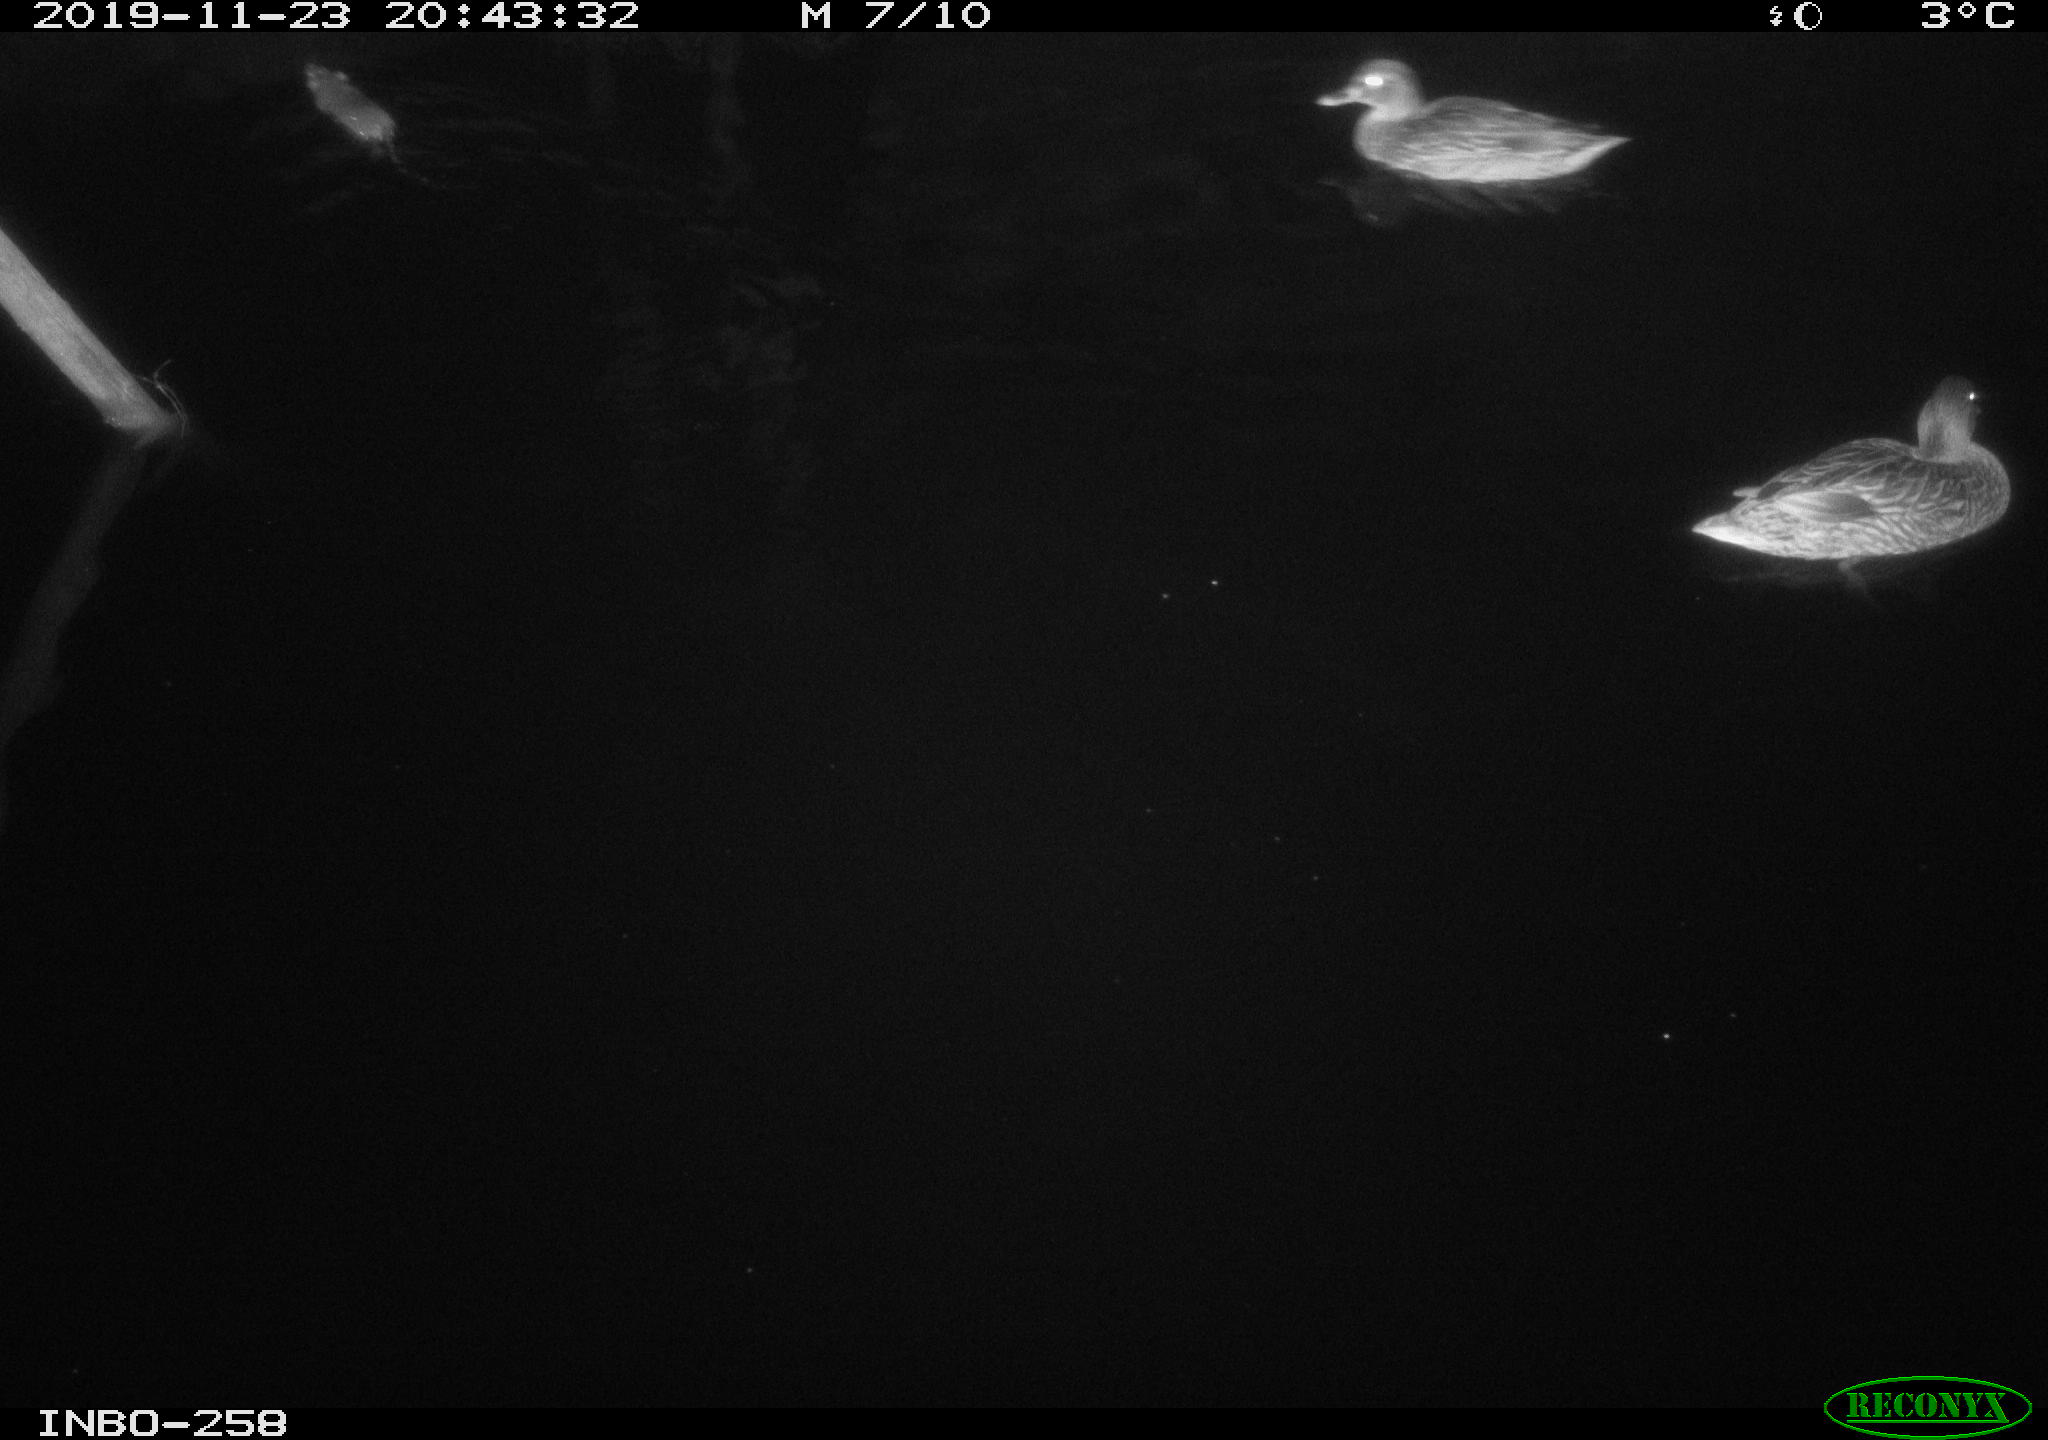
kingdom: Animalia
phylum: Chordata
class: Mammalia
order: Rodentia
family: Muridae
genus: Rattus
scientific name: Rattus norvegicus
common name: Brown rat
